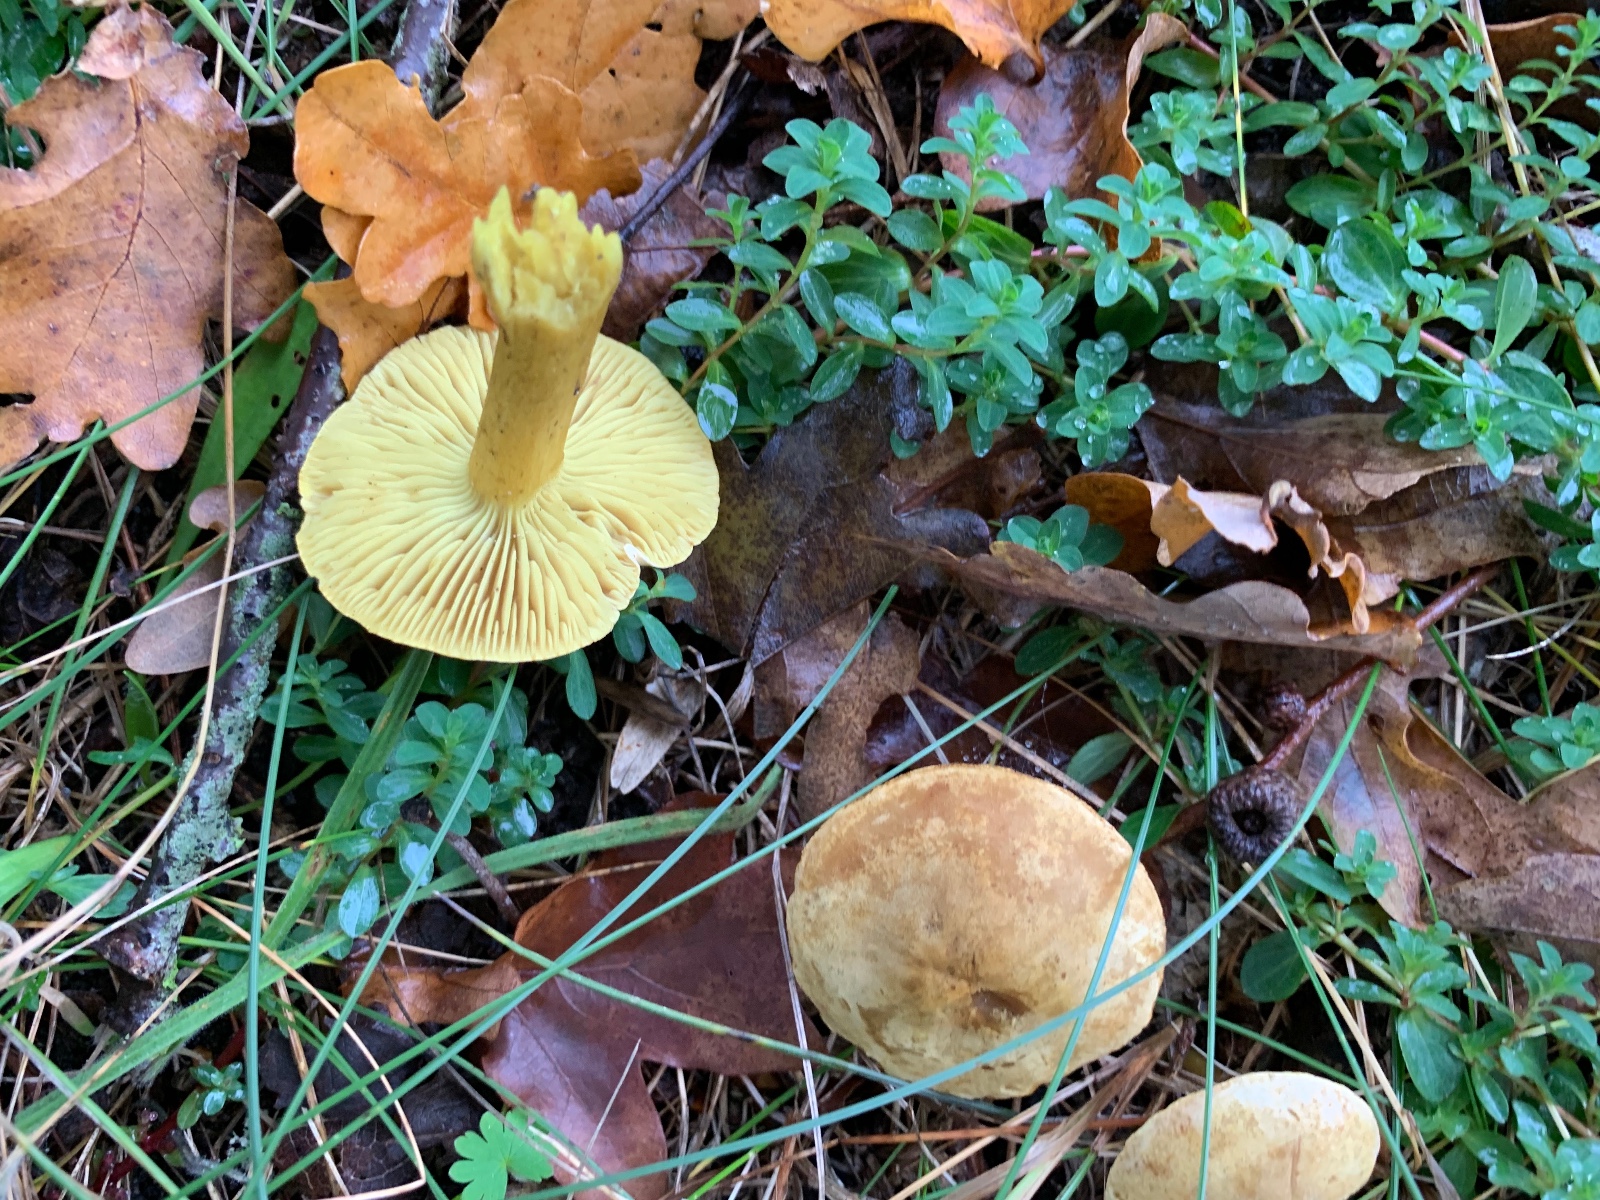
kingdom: Fungi
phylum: Basidiomycota
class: Agaricomycetes
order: Agaricales
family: Tricholomataceae
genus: Tricholoma
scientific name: Tricholoma sulphureum
